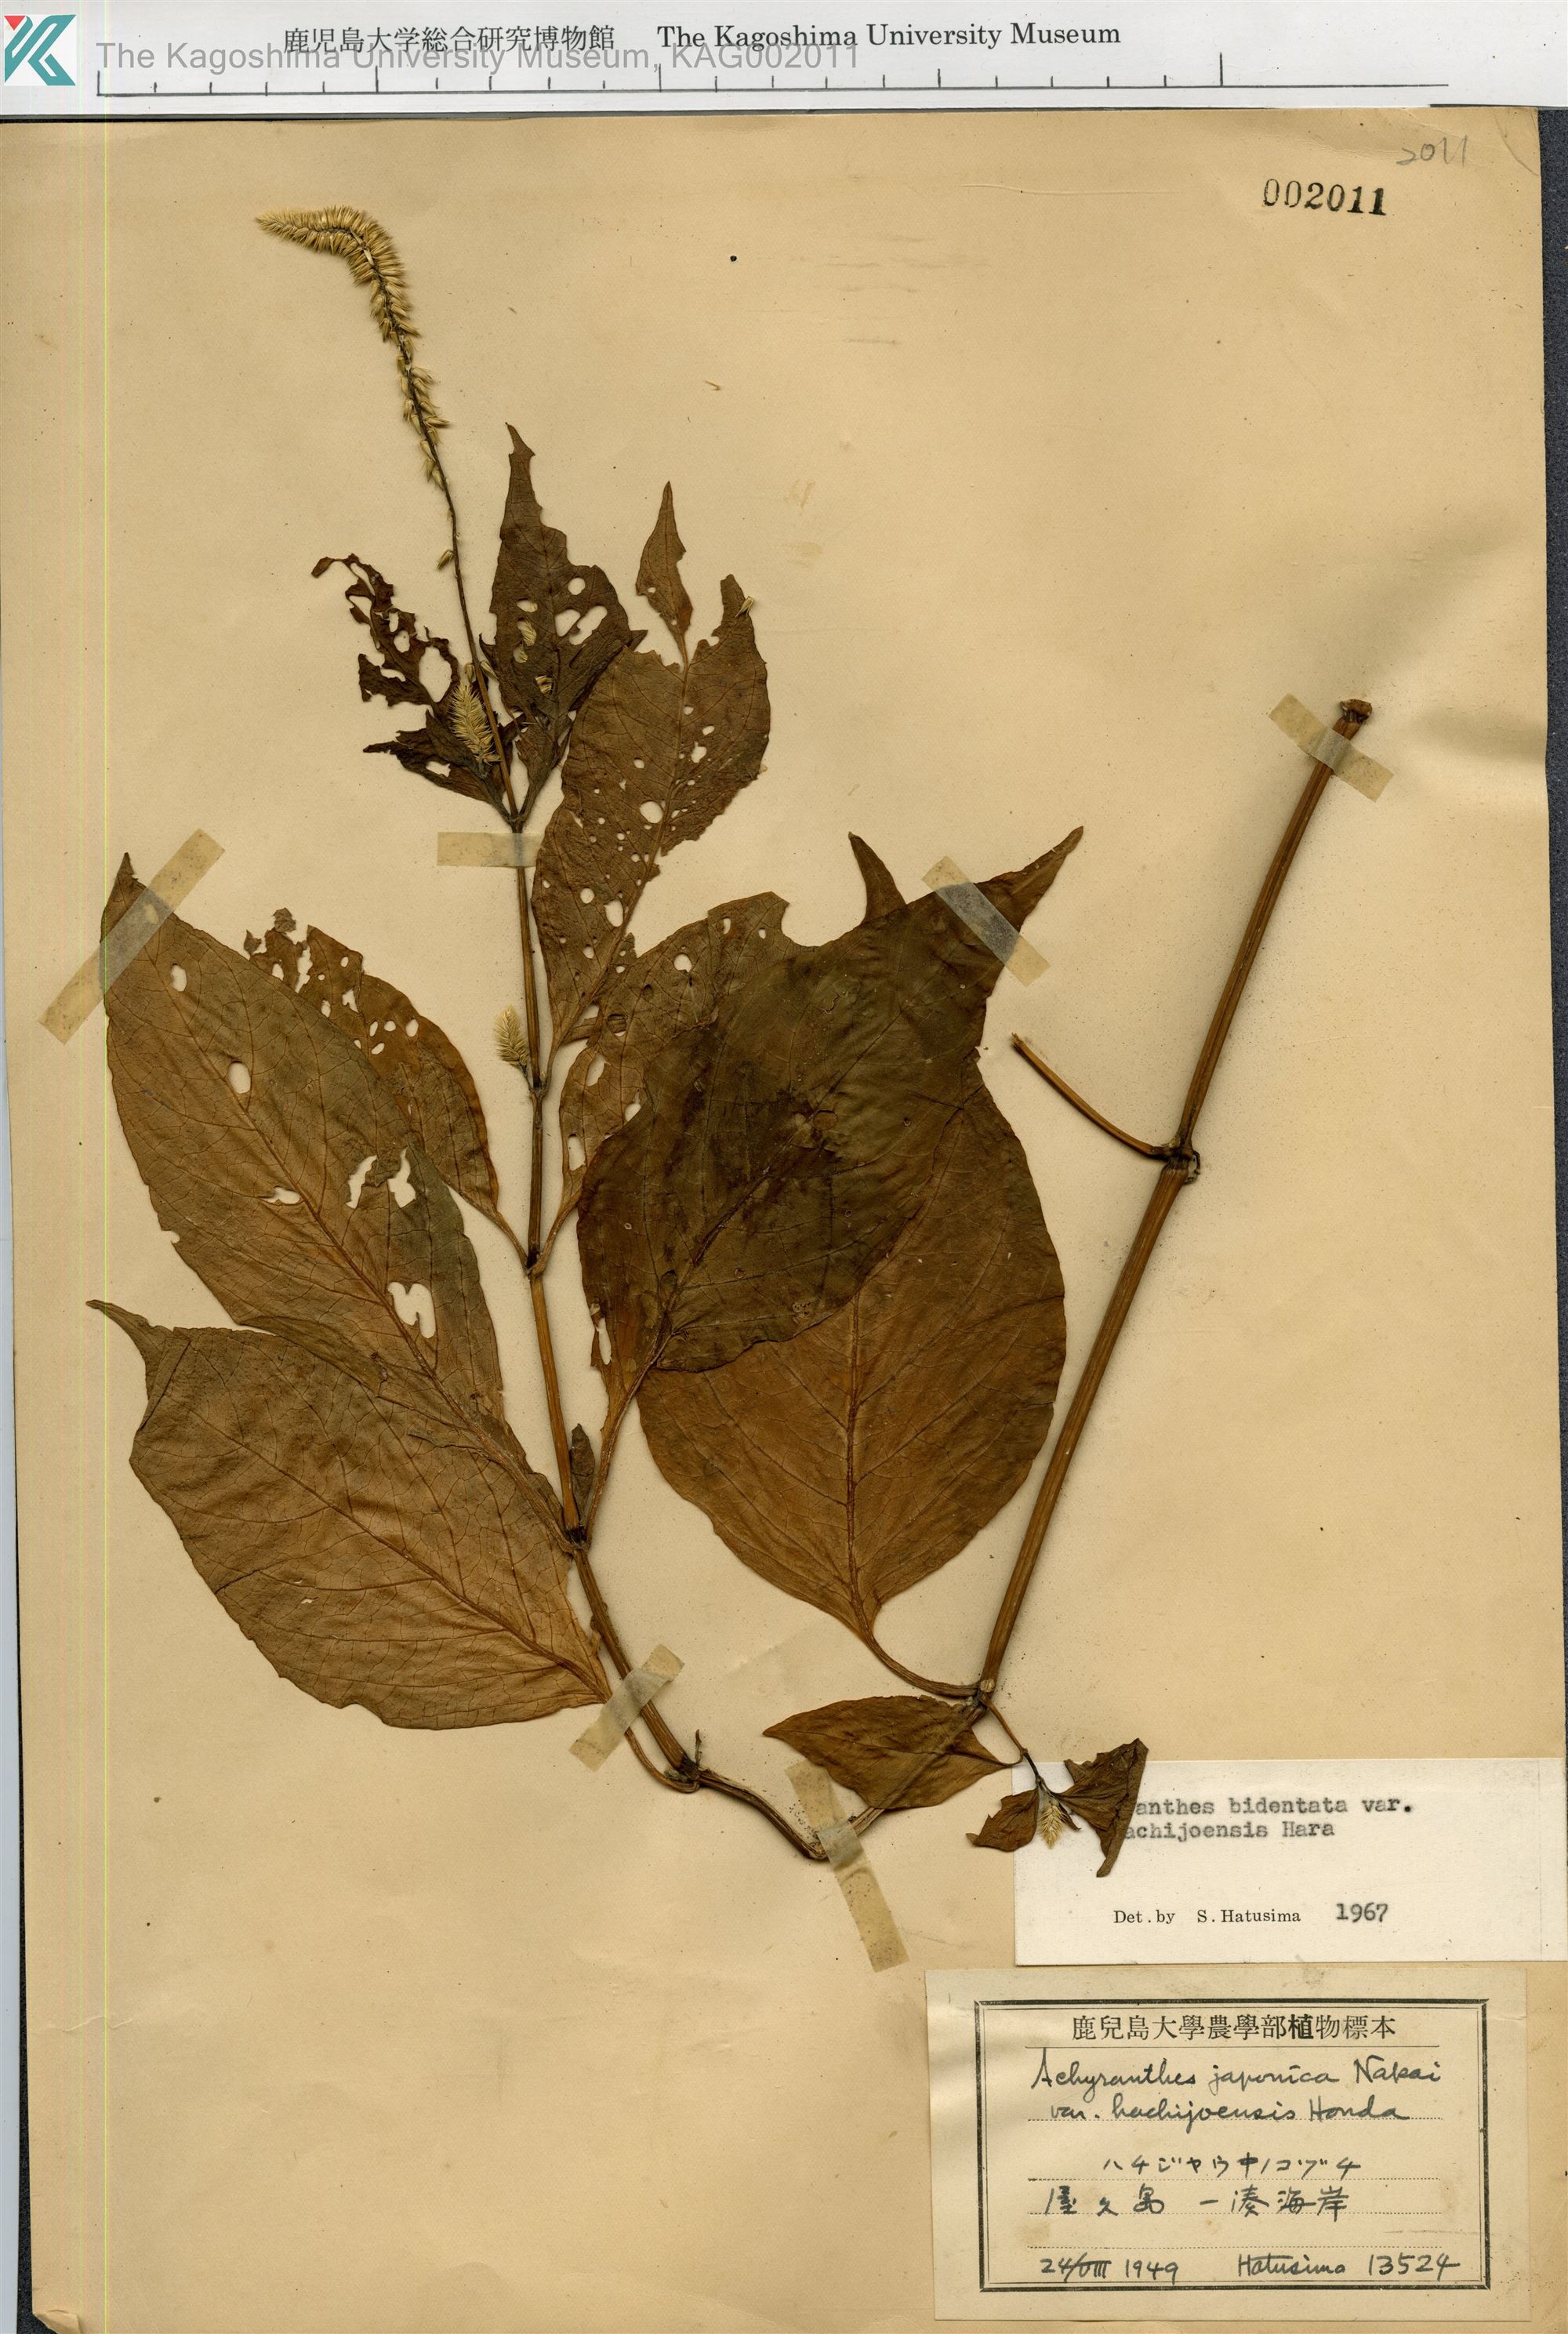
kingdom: Plantae
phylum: Tracheophyta
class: Magnoliopsida
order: Caryophyllales
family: Amaranthaceae
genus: Achyranthes
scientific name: Achyranthes bidentata
